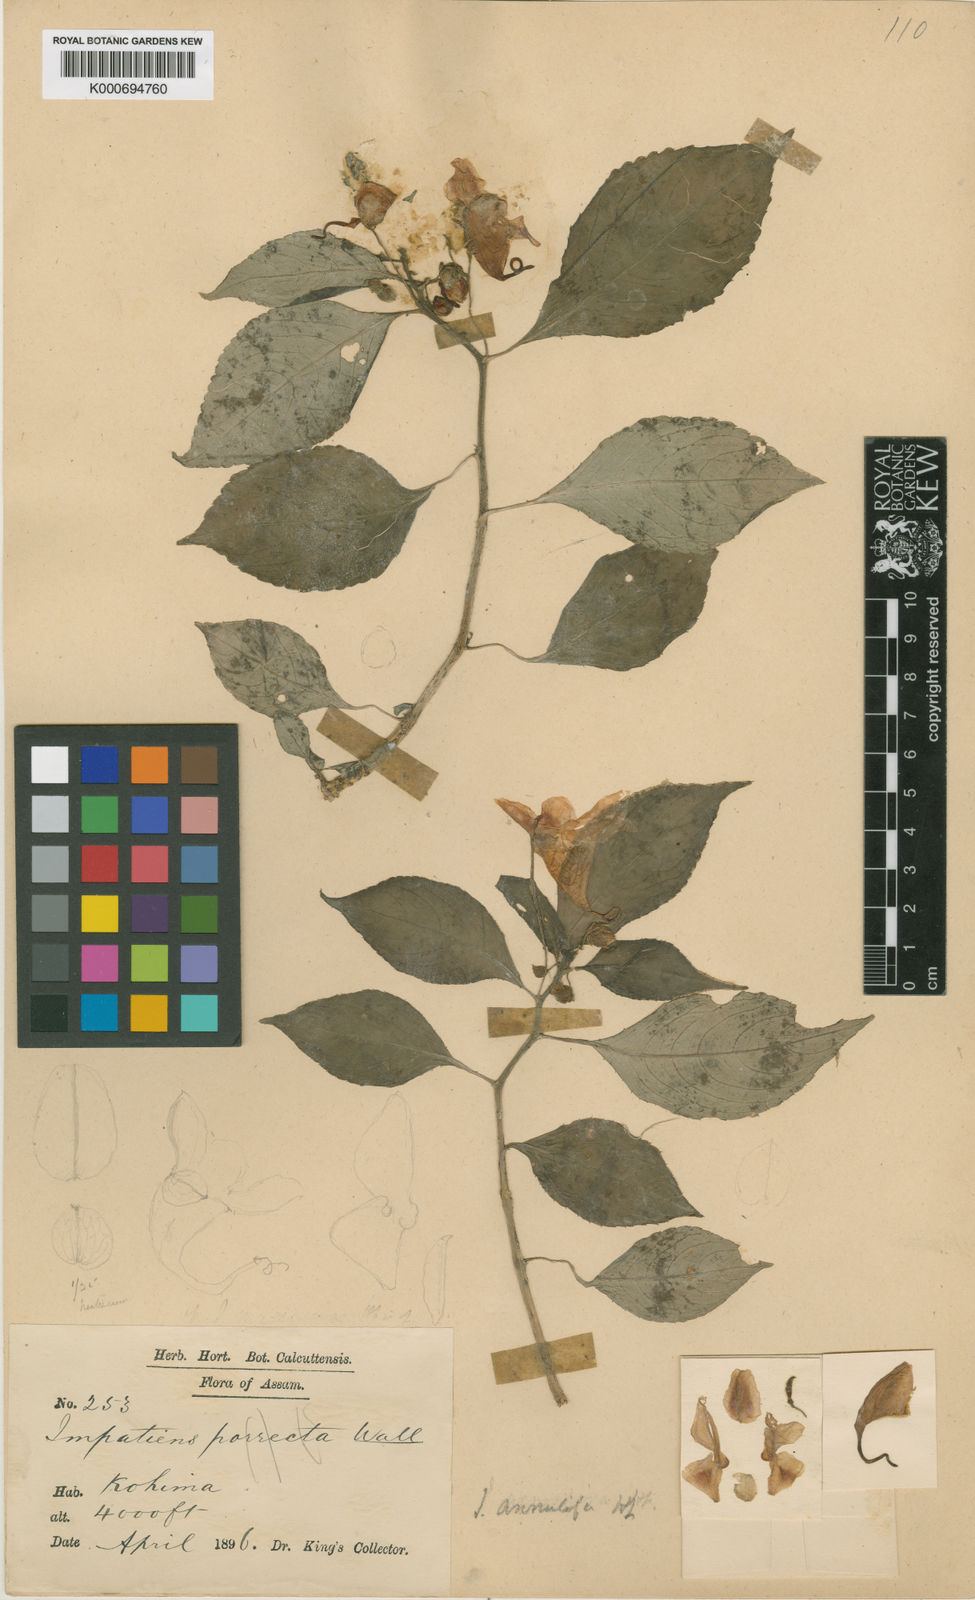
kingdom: Plantae
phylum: Tracheophyta
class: Magnoliopsida
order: Ericales
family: Balsaminaceae
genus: Impatiens
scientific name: Impatiens pulchra
